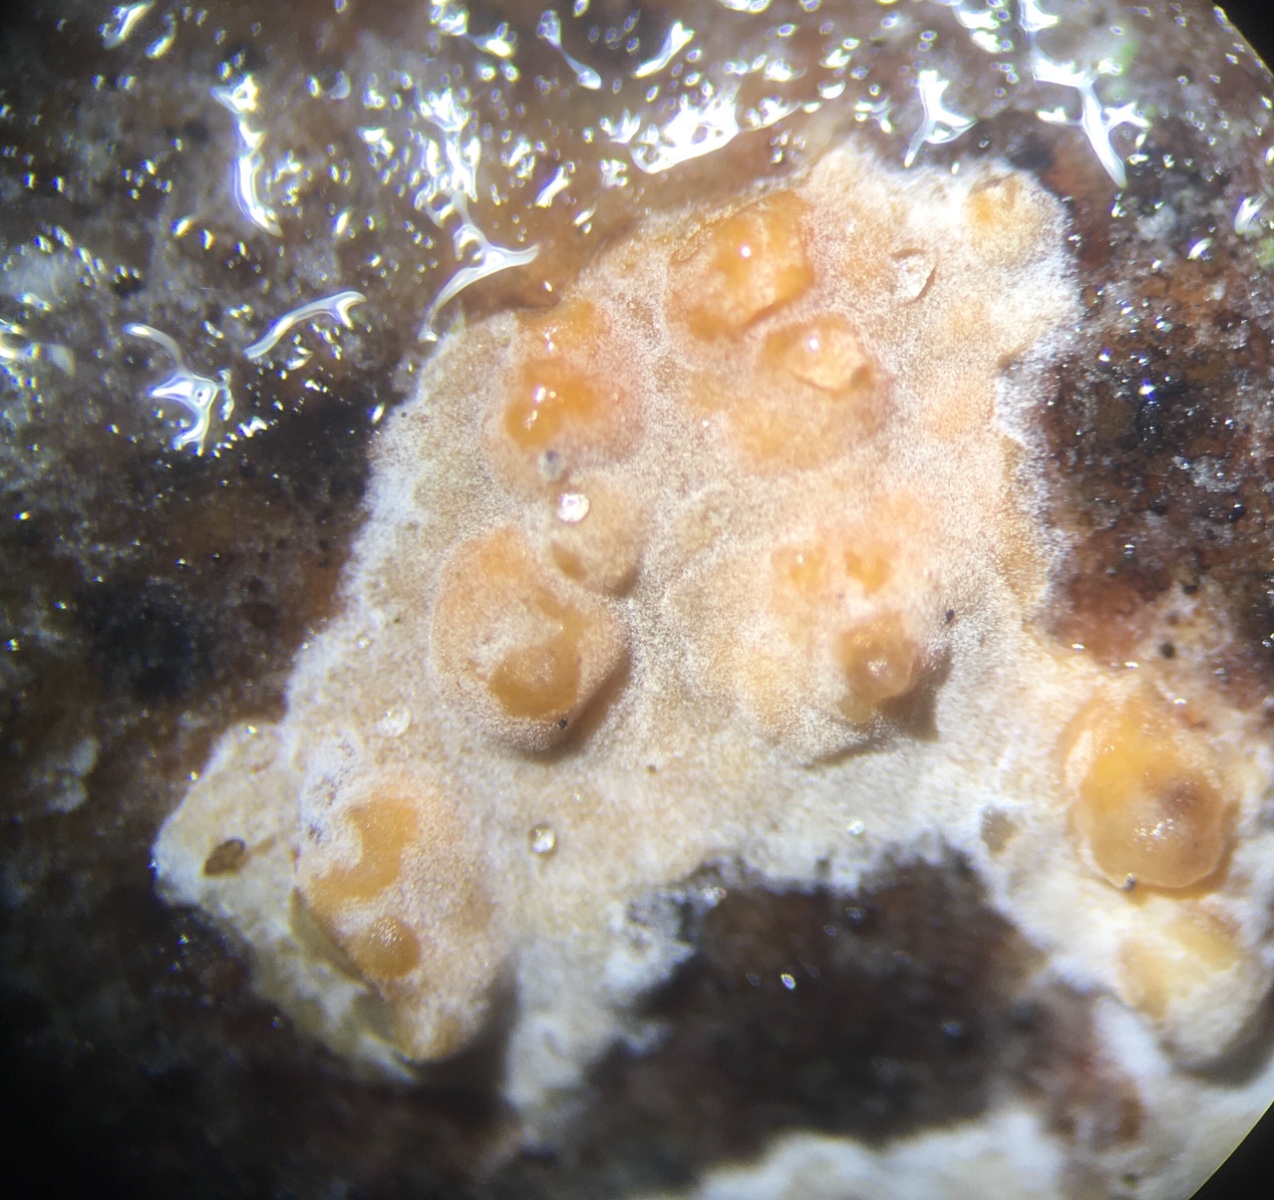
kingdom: Fungi
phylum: Basidiomycota
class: Agaricomycetes
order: Russulales
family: Peniophoraceae
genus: Peniophora
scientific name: Peniophora polygonia
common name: polygon-voksskind
